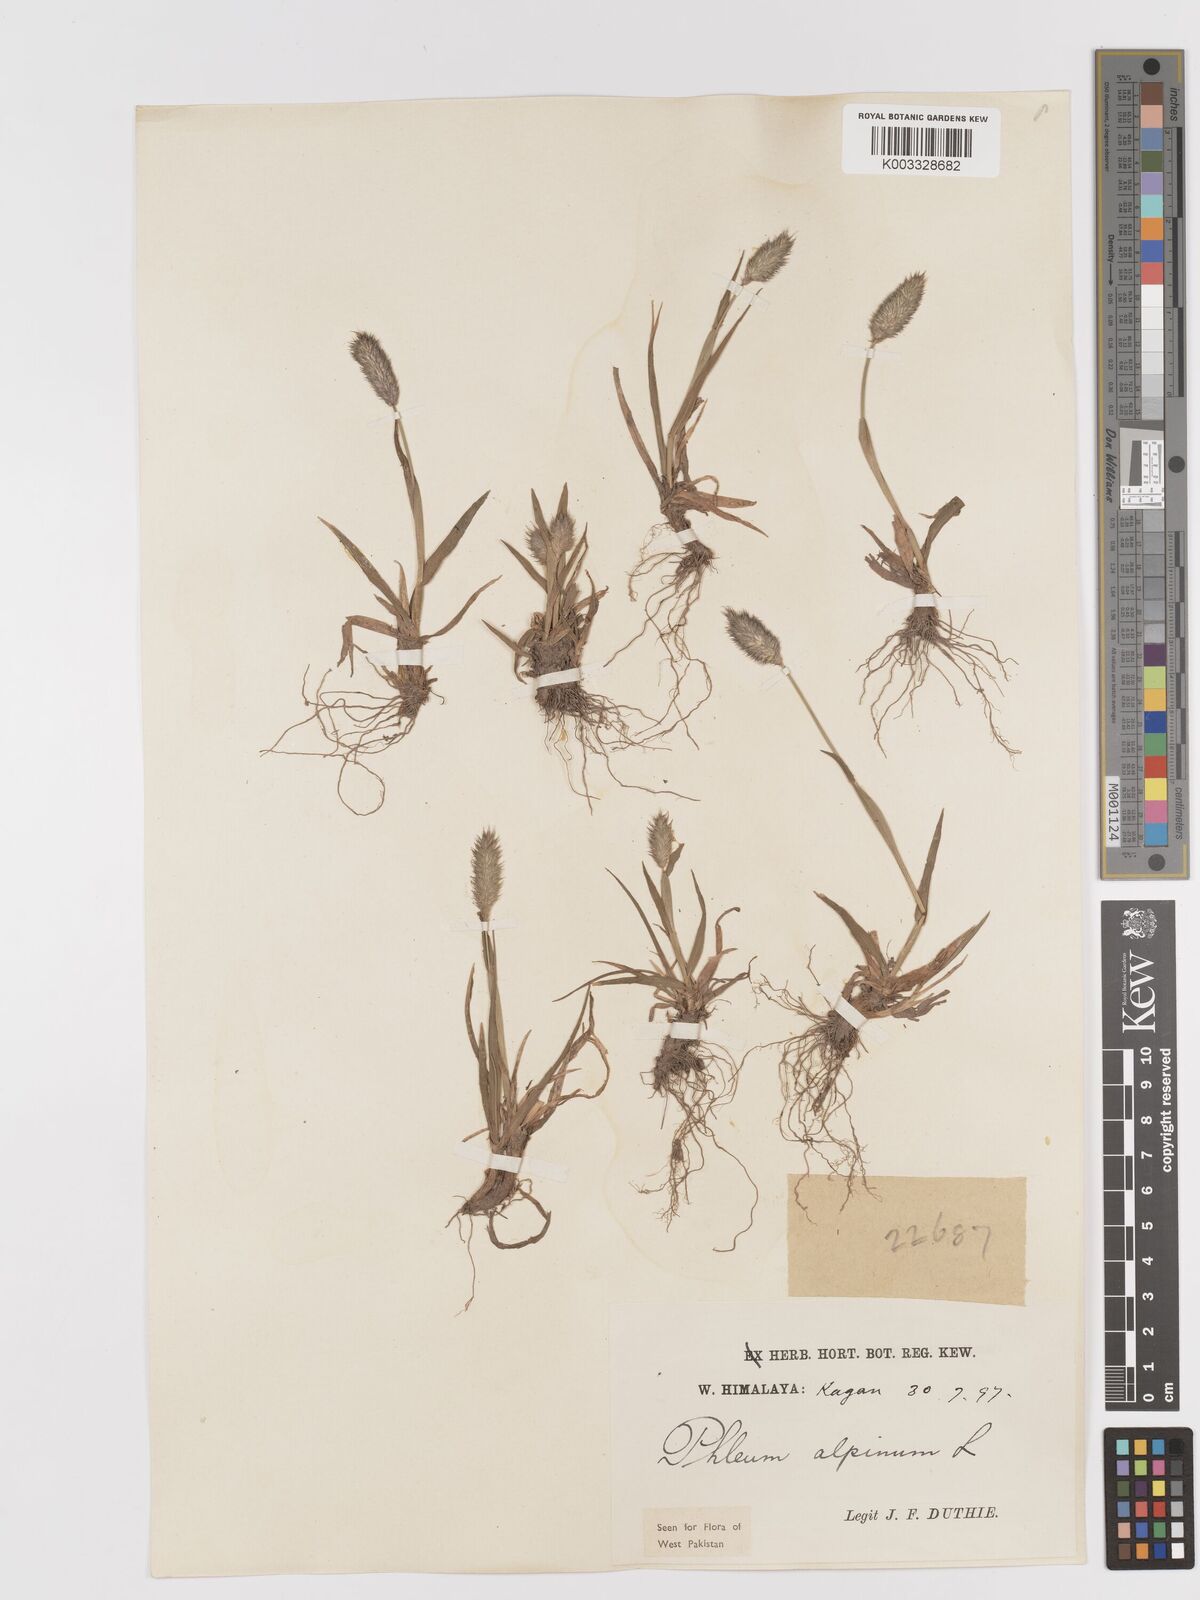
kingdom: Plantae
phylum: Tracheophyta
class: Liliopsida
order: Poales
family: Poaceae
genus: Phleum
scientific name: Phleum alpinum
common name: Alpine cat's-tail
